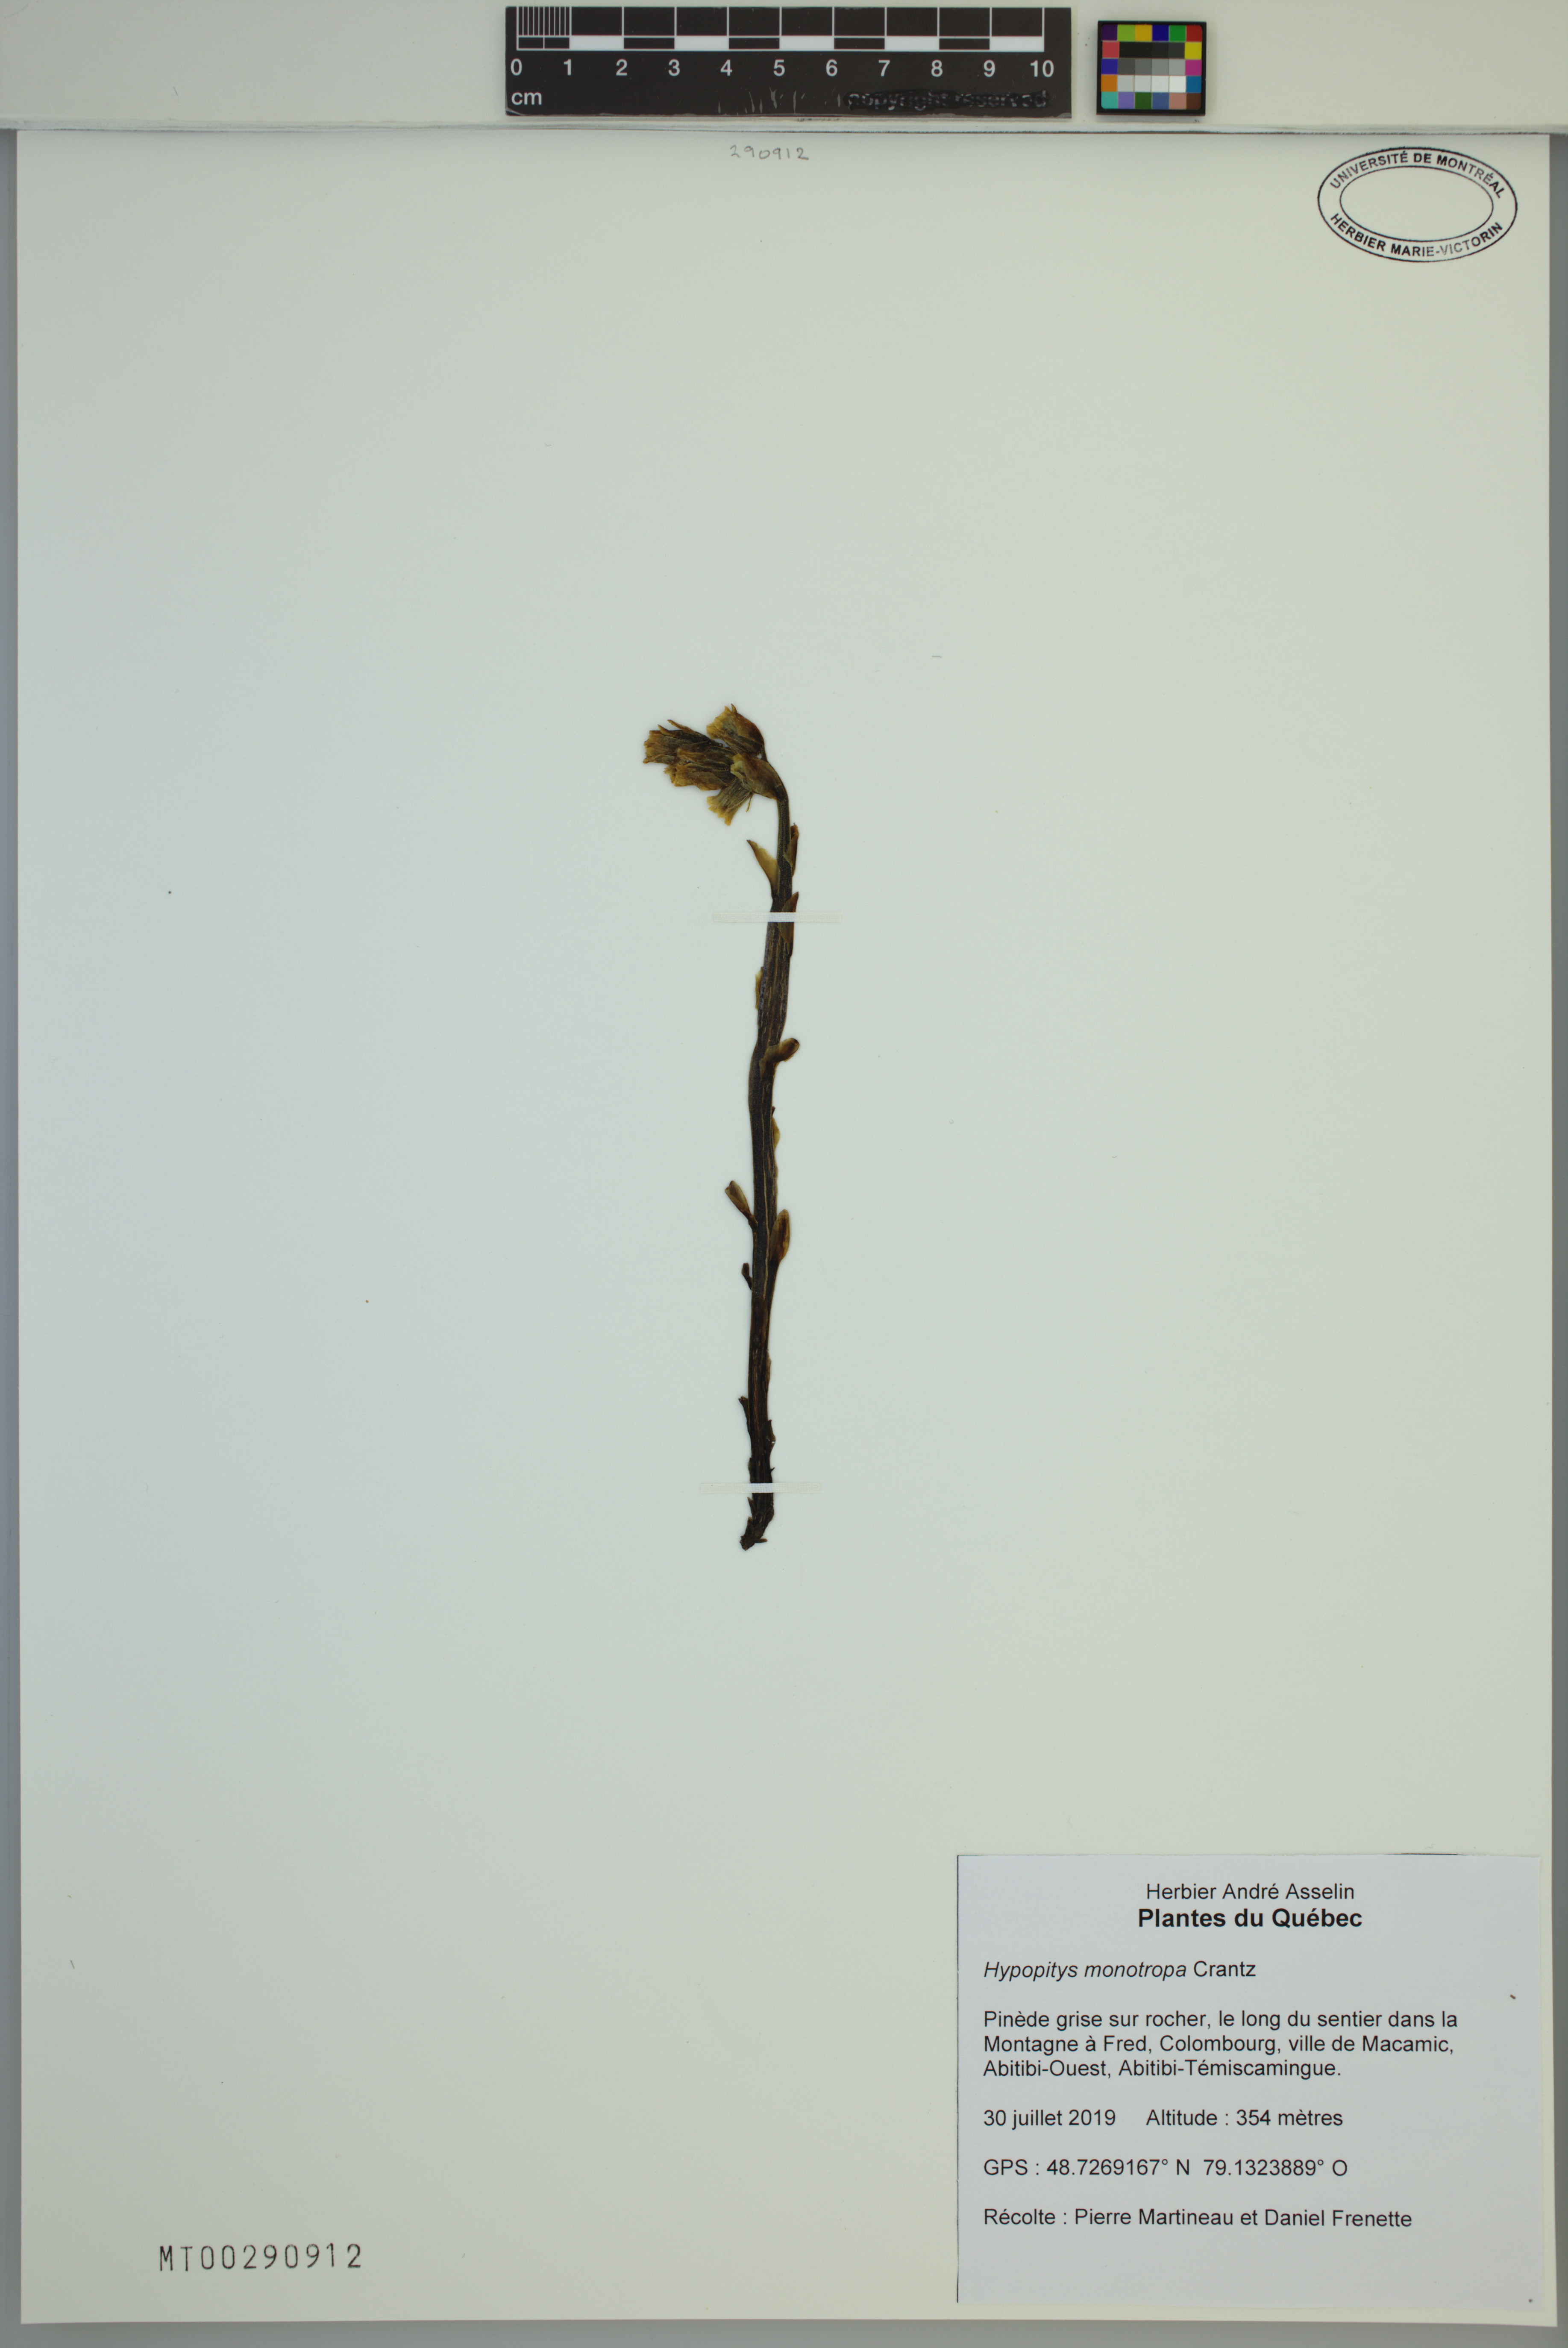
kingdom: Plantae
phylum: Tracheophyta
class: Magnoliopsida
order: Ericales
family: Ericaceae
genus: Hypopitys
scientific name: Hypopitys monotropa
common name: Yellow bird's-nest
